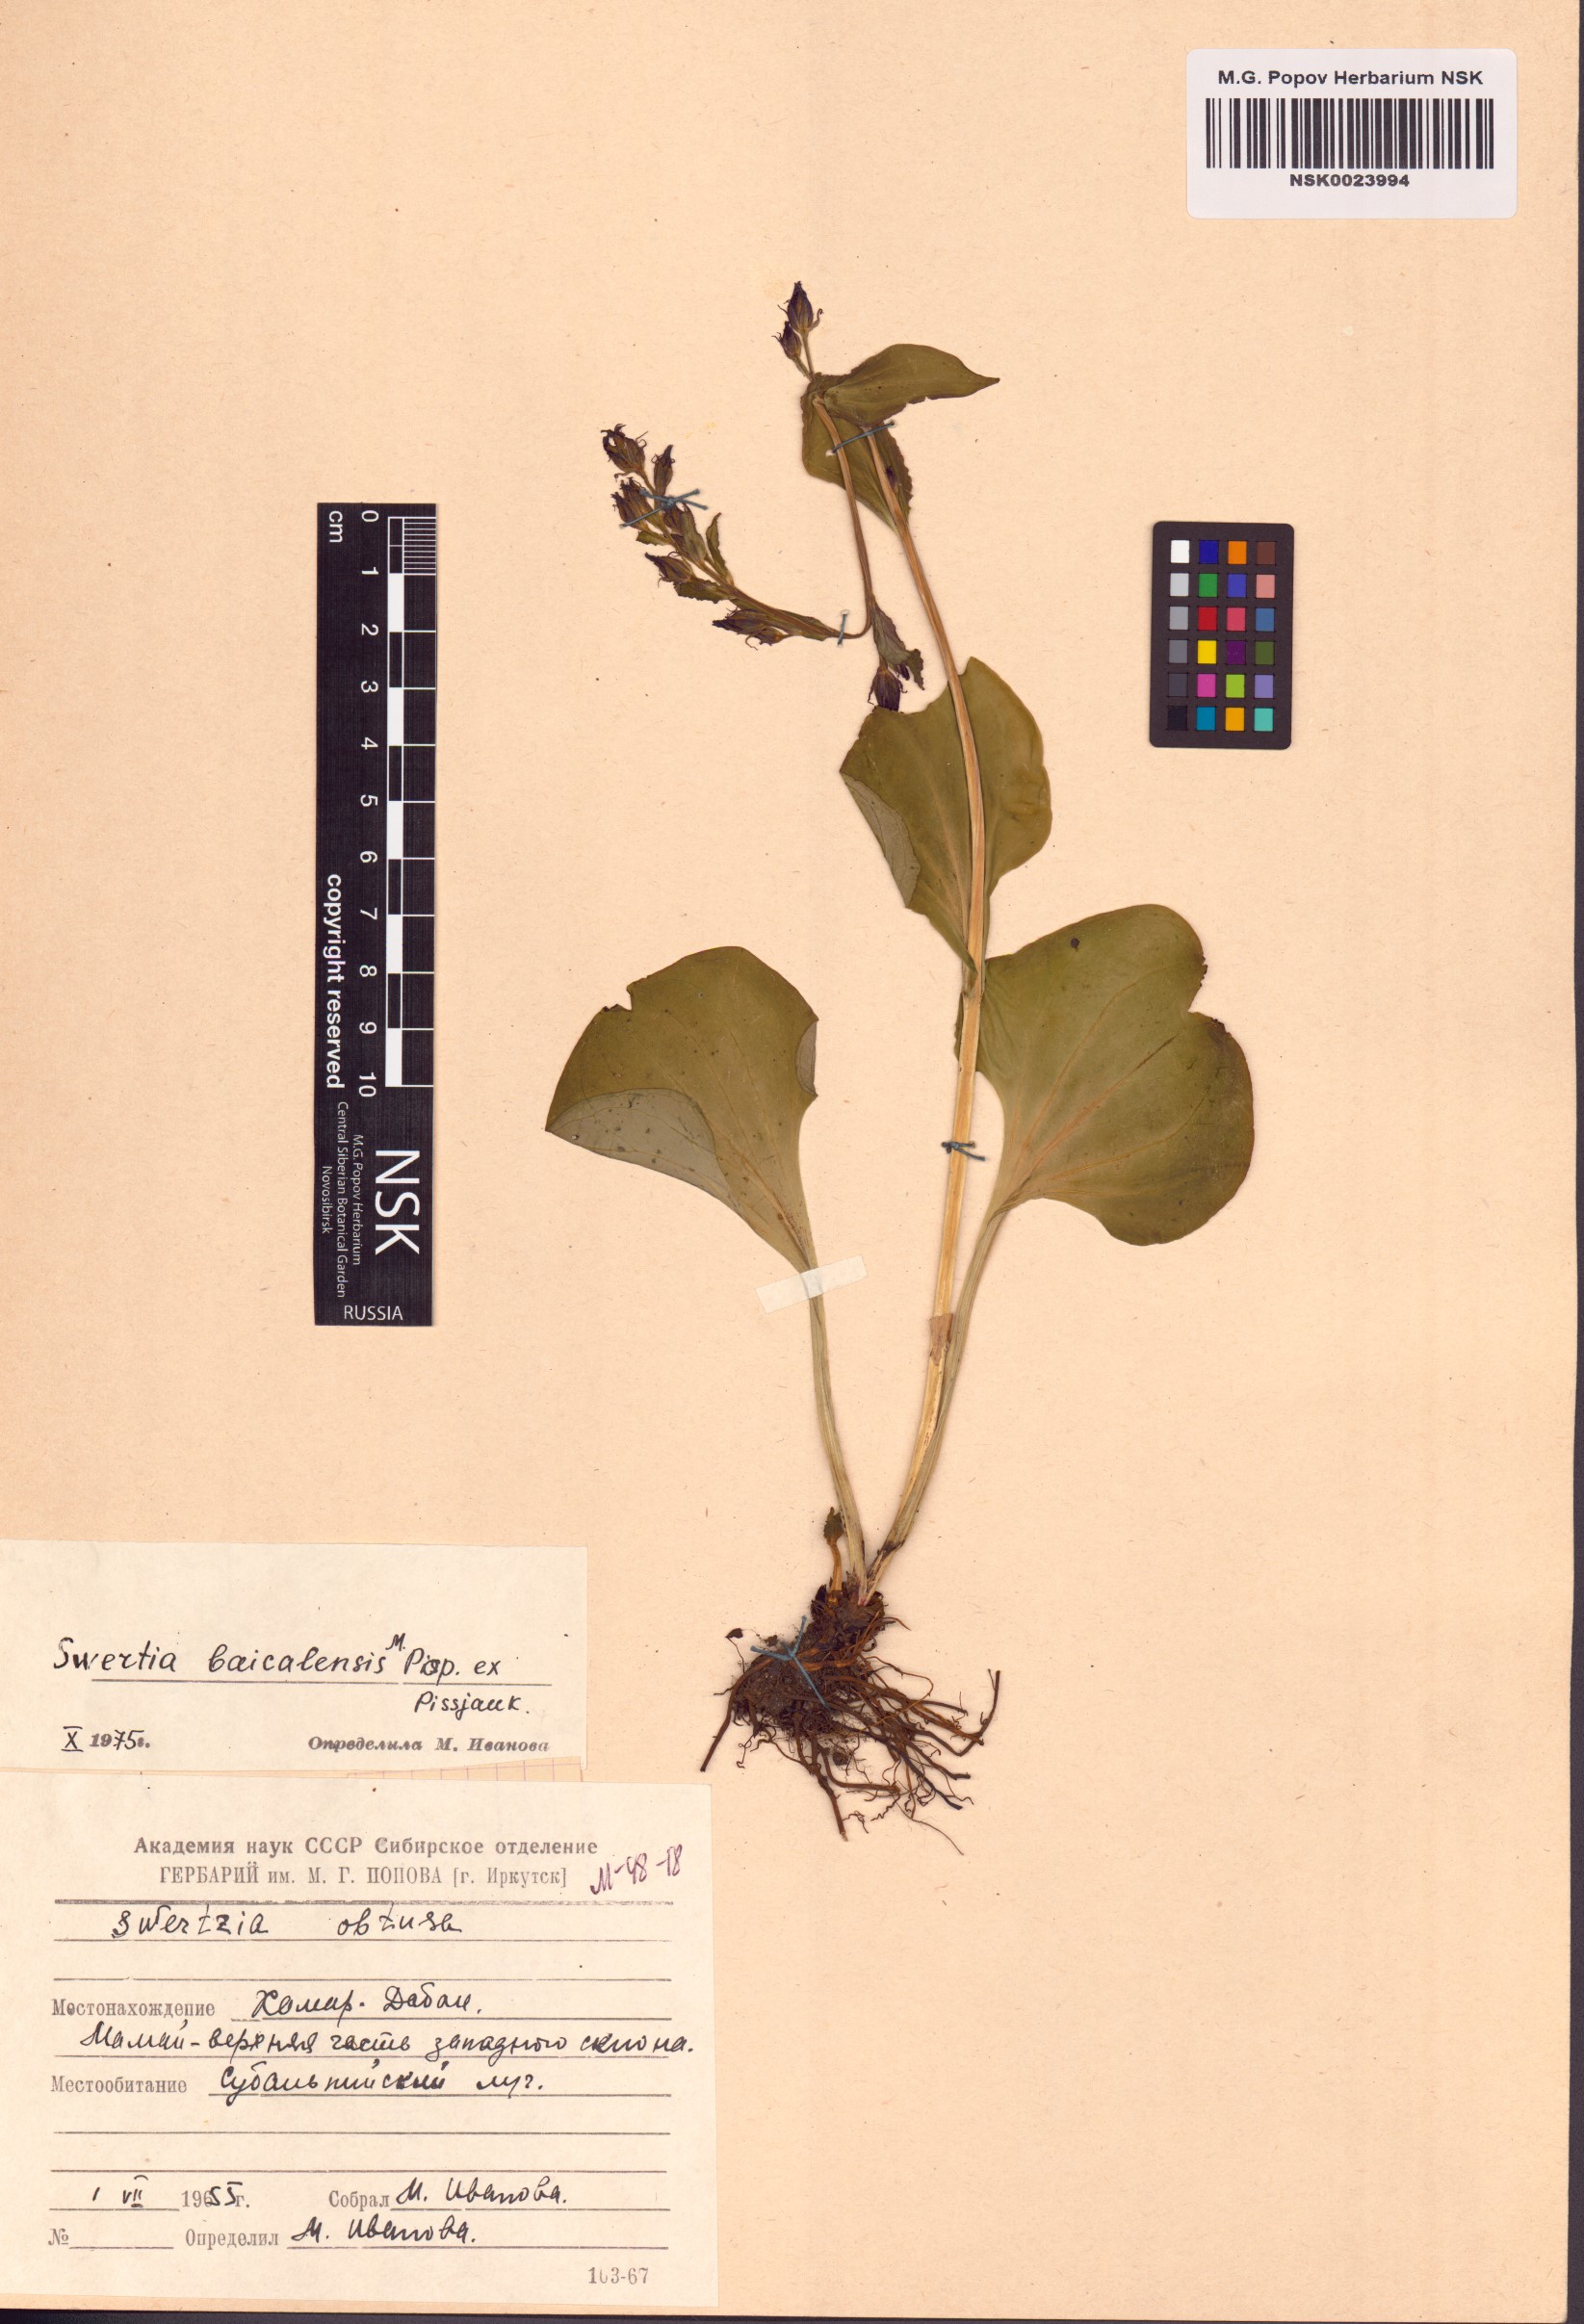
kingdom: Plantae
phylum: Tracheophyta
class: Magnoliopsida
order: Gentianales
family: Gentianaceae
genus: Swertia
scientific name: Swertia obtusa
